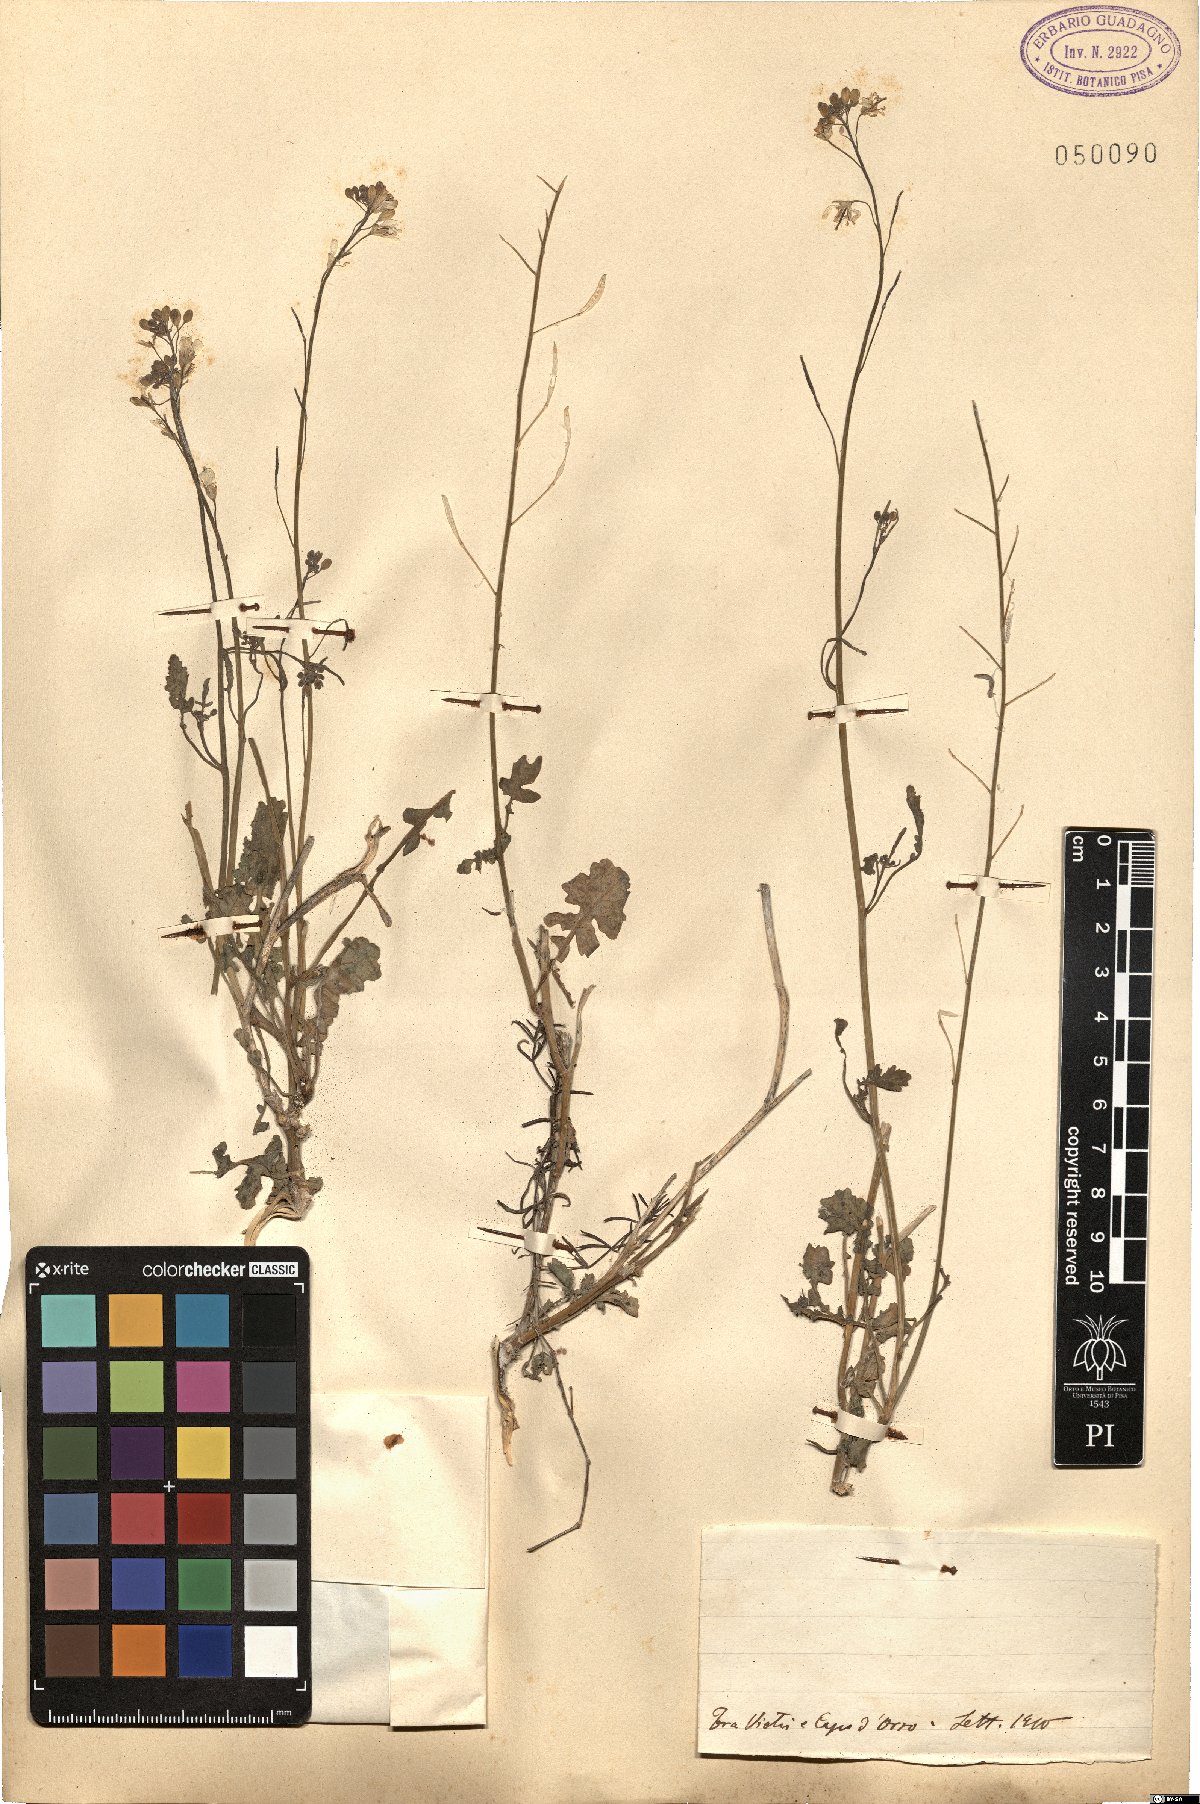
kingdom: Plantae
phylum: Tracheophyta
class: Magnoliopsida
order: Brassicales
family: Brassicaceae
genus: Brassica
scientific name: Brassica
